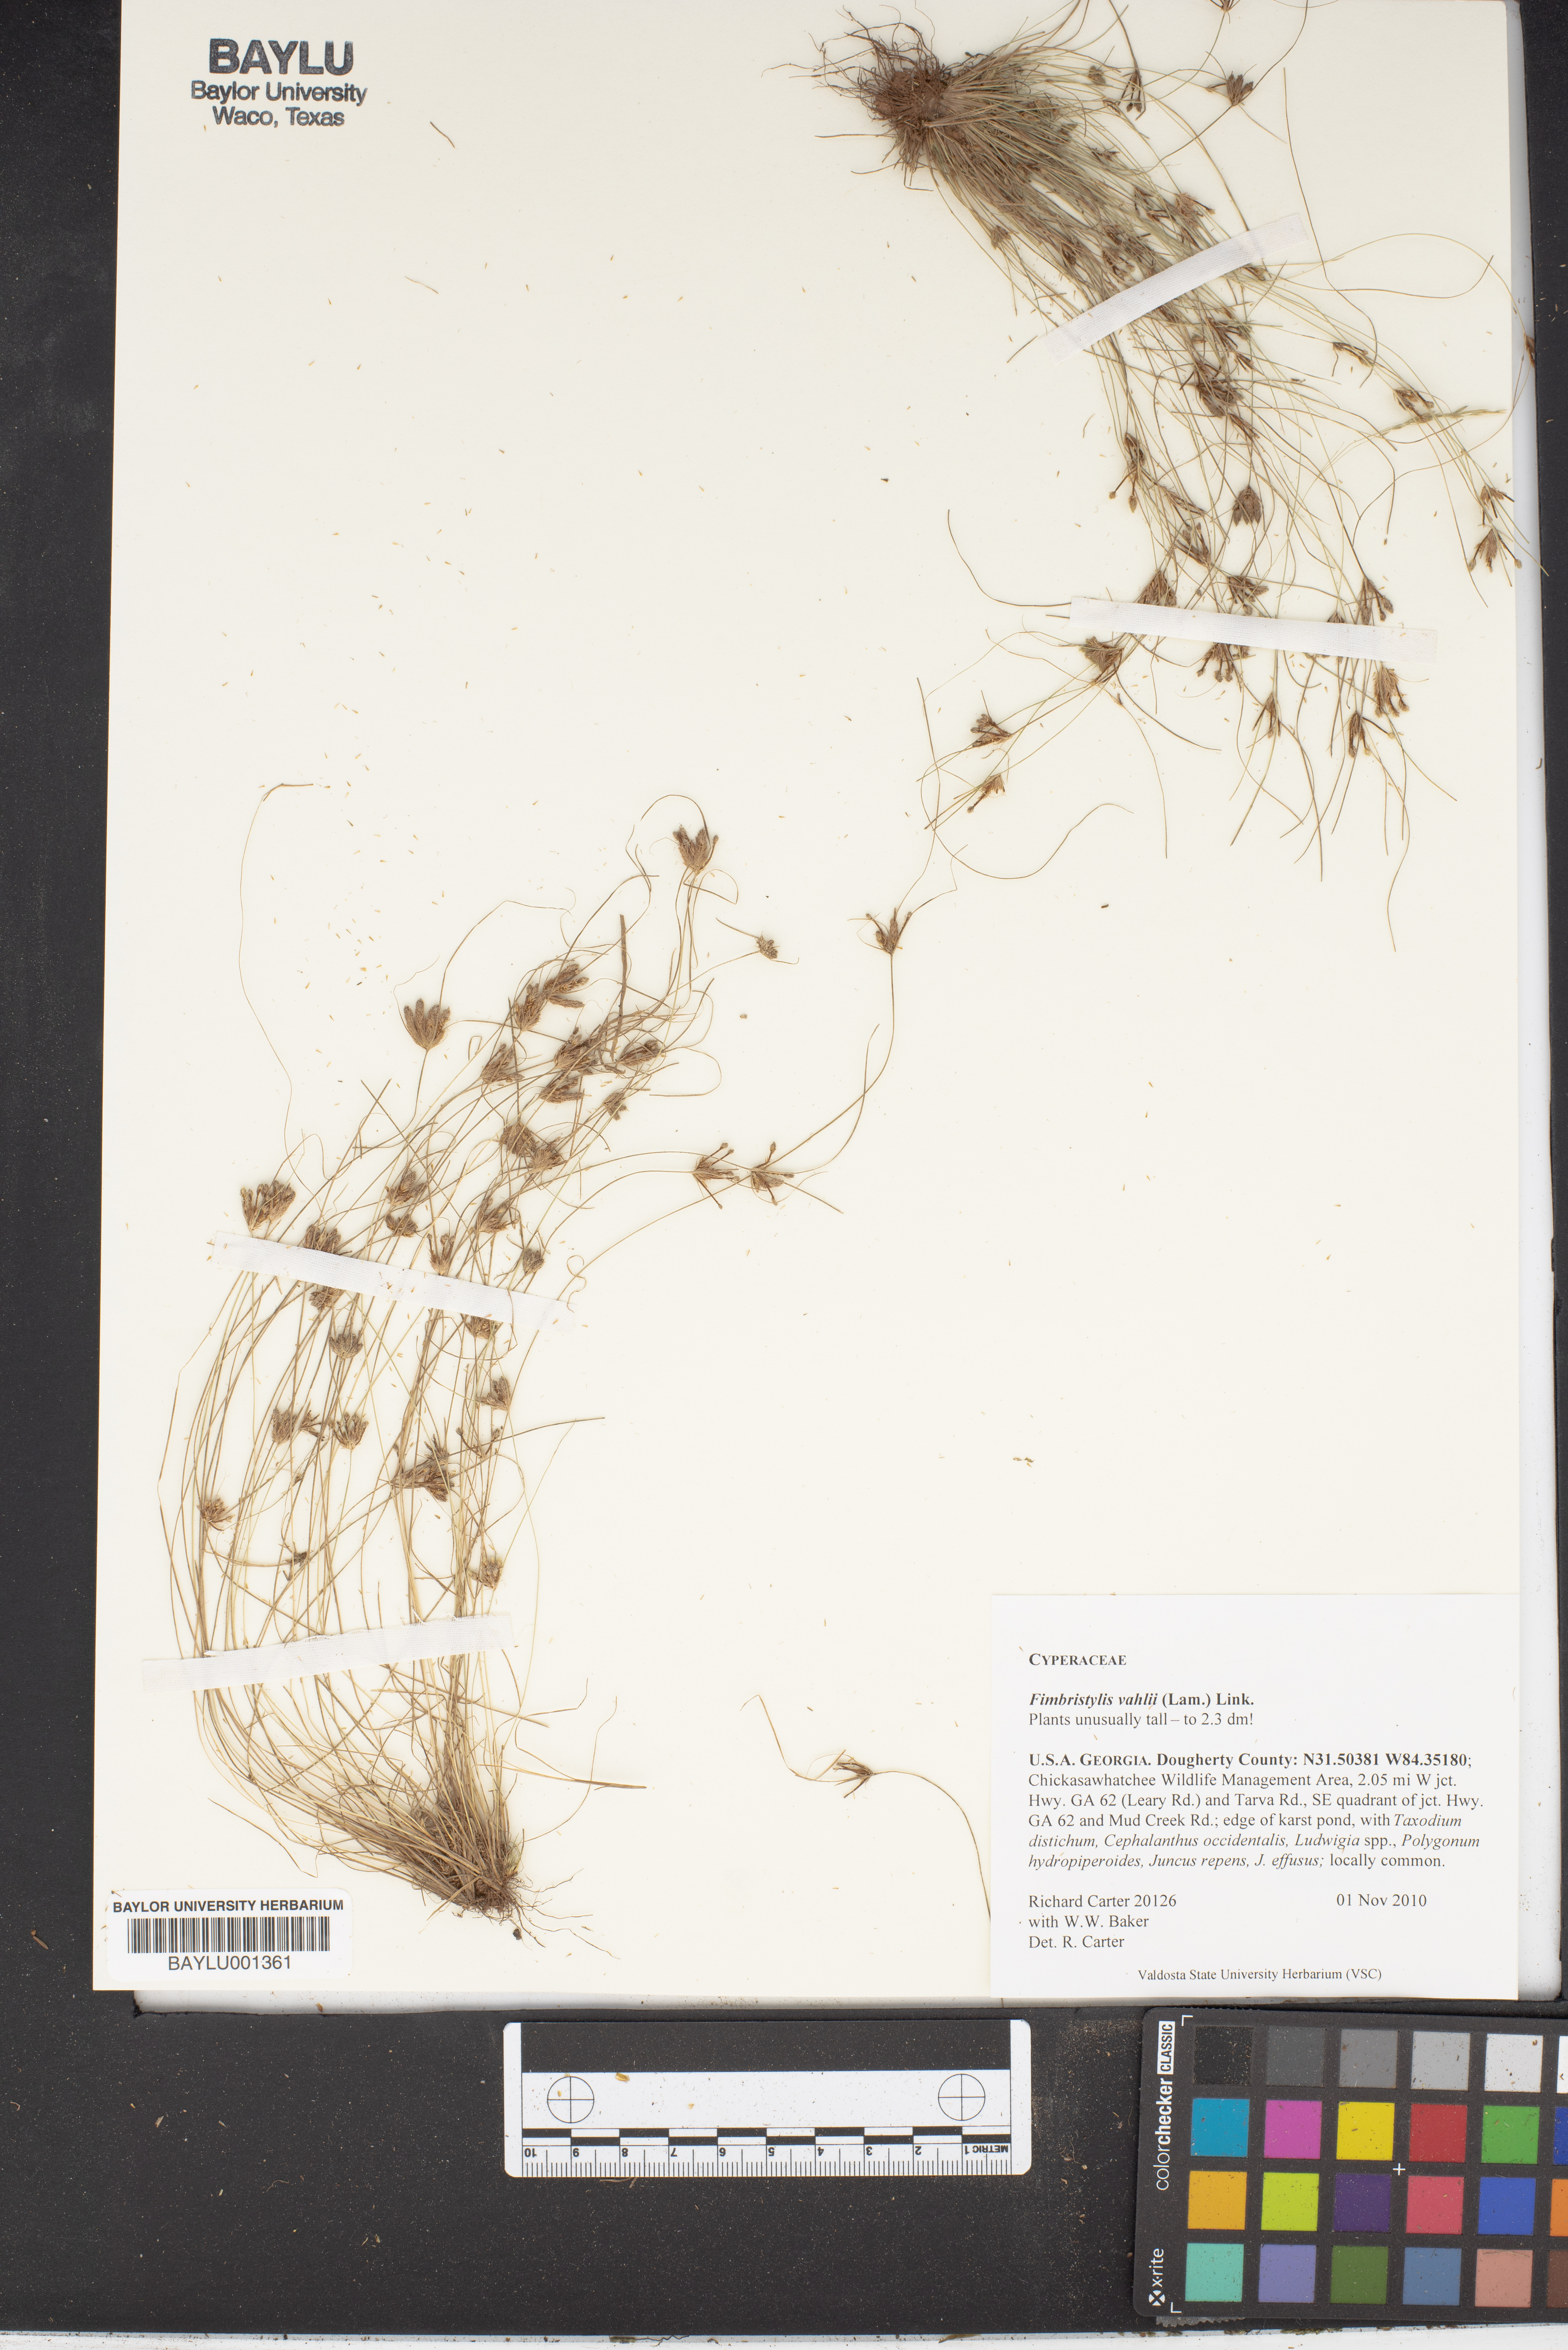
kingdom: Plantae
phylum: Tracheophyta
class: Liliopsida
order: Poales
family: Cyperaceae
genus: Fimbristylis
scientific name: Fimbristylis vahlii
